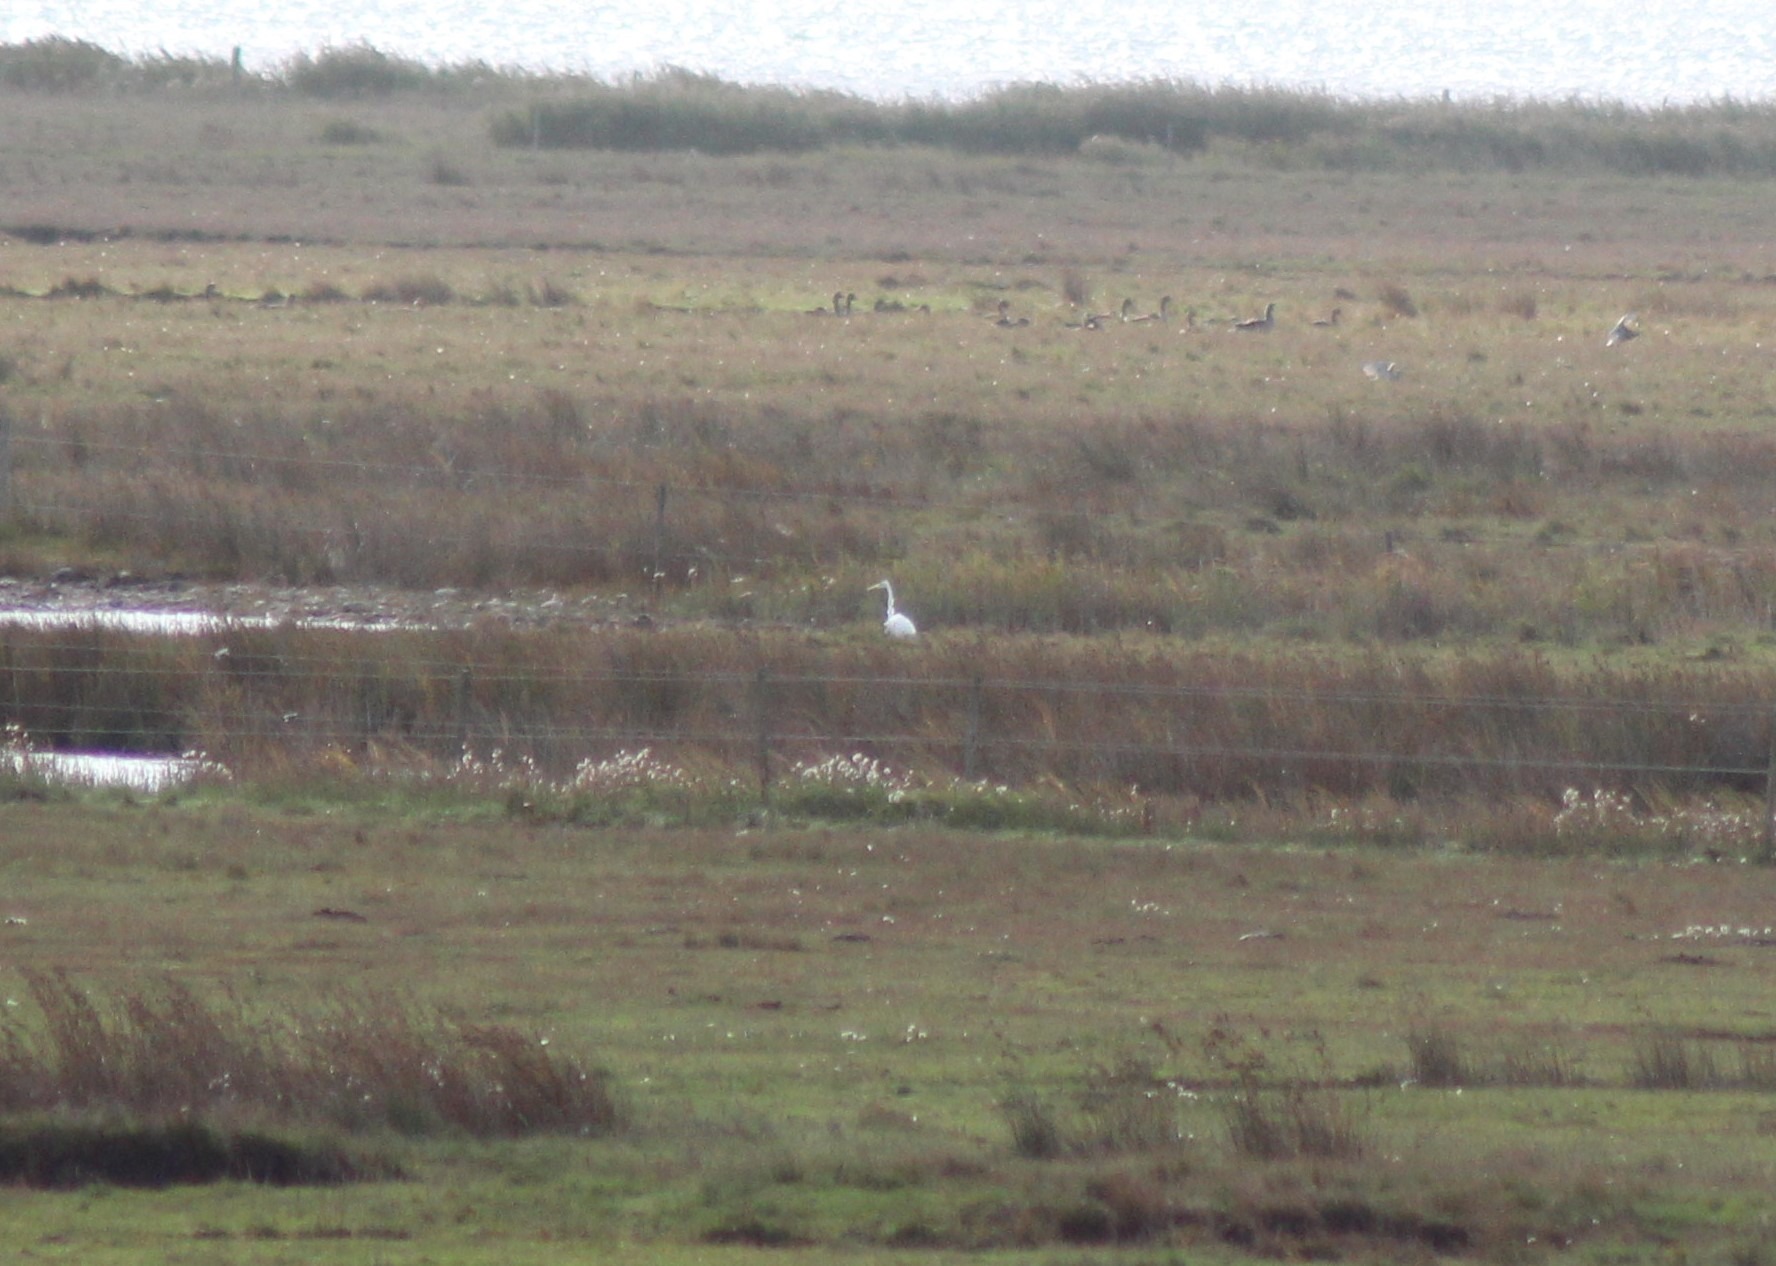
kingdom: Animalia
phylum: Chordata
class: Aves
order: Pelecaniformes
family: Ardeidae
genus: Ardea
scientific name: Ardea alba
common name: Sølvhejre
